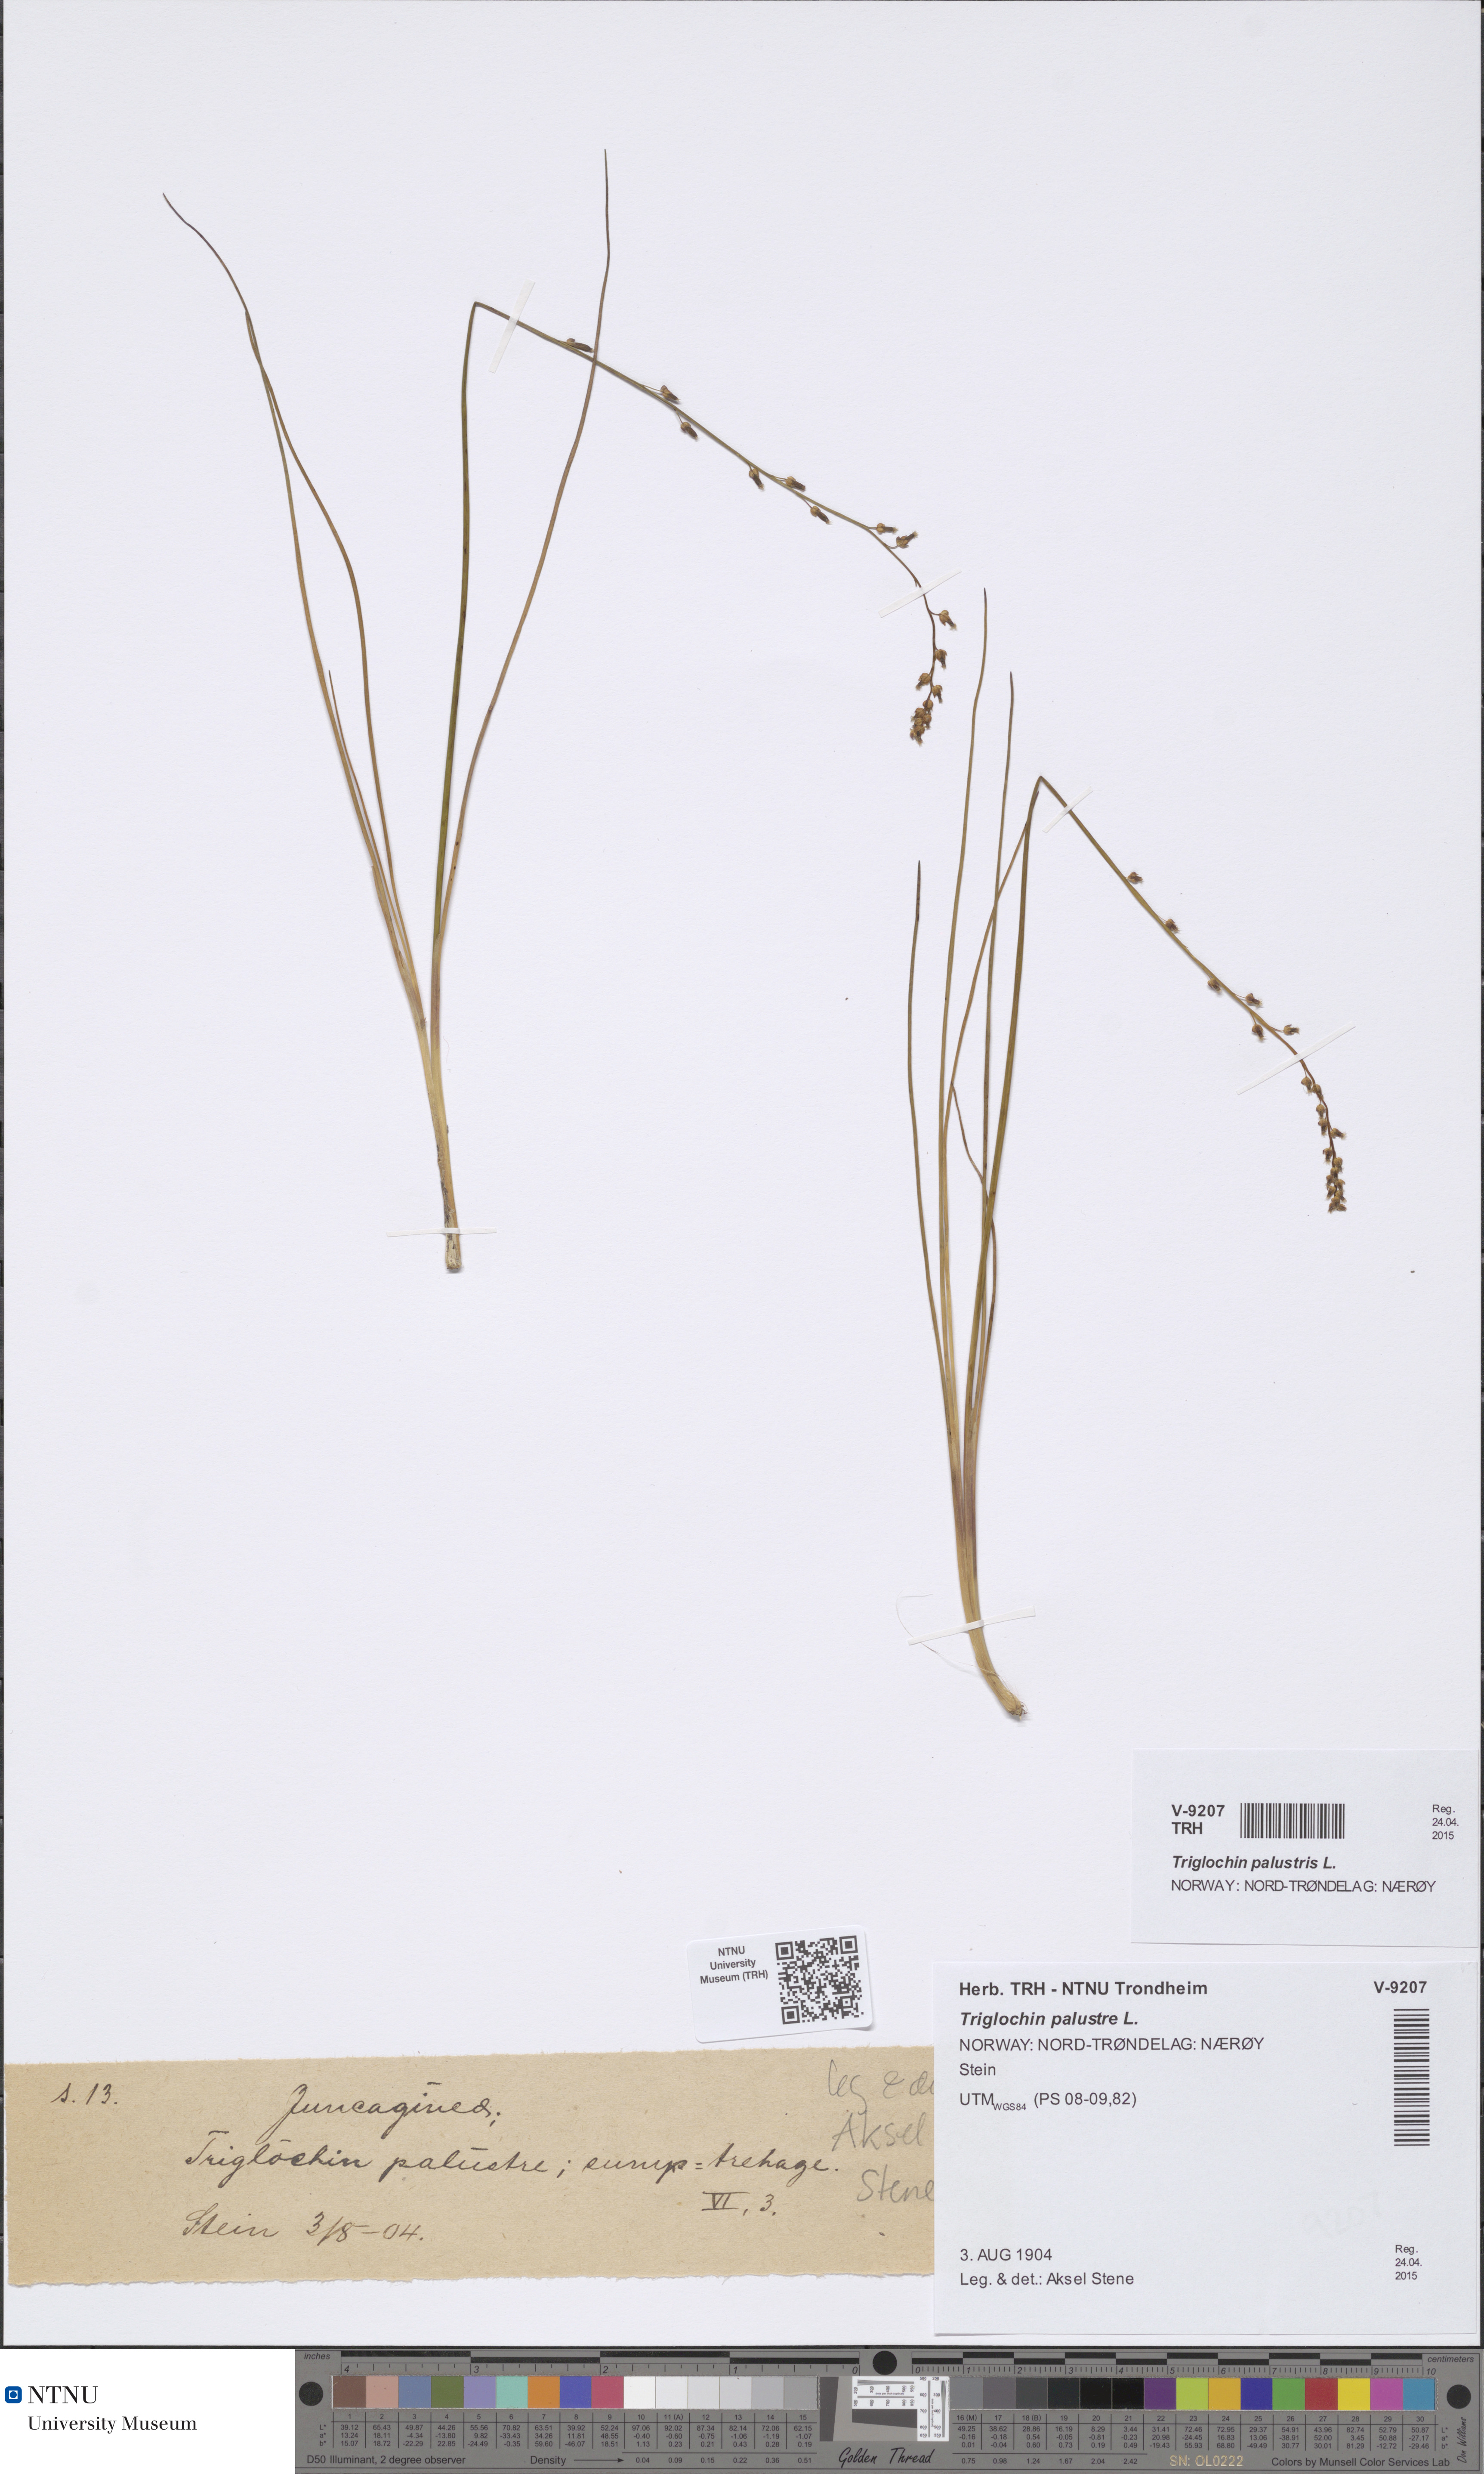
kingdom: Plantae
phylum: Tracheophyta
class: Liliopsida
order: Alismatales
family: Juncaginaceae
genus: Triglochin
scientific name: Triglochin palustris
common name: Marsh arrowgrass
